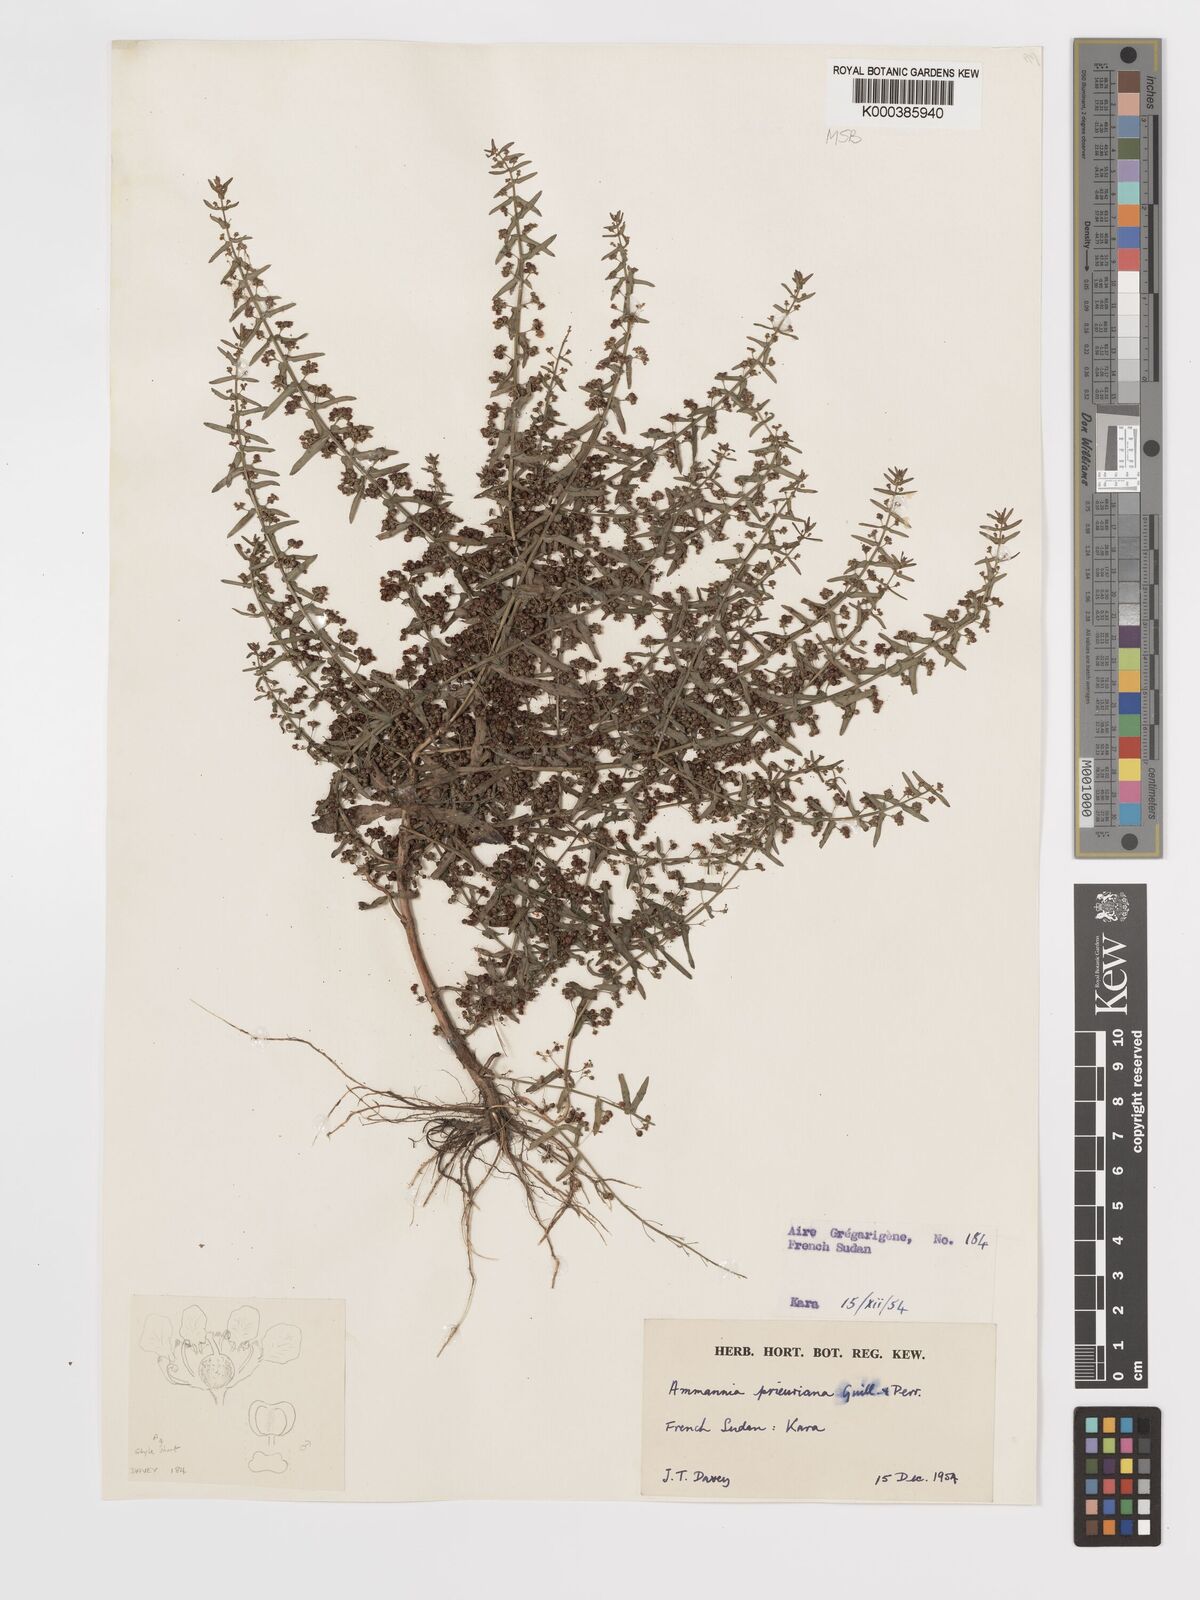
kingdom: Plantae
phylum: Tracheophyta
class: Magnoliopsida
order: Myrtales
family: Lythraceae
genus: Ammannia
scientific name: Ammannia prieuriana
